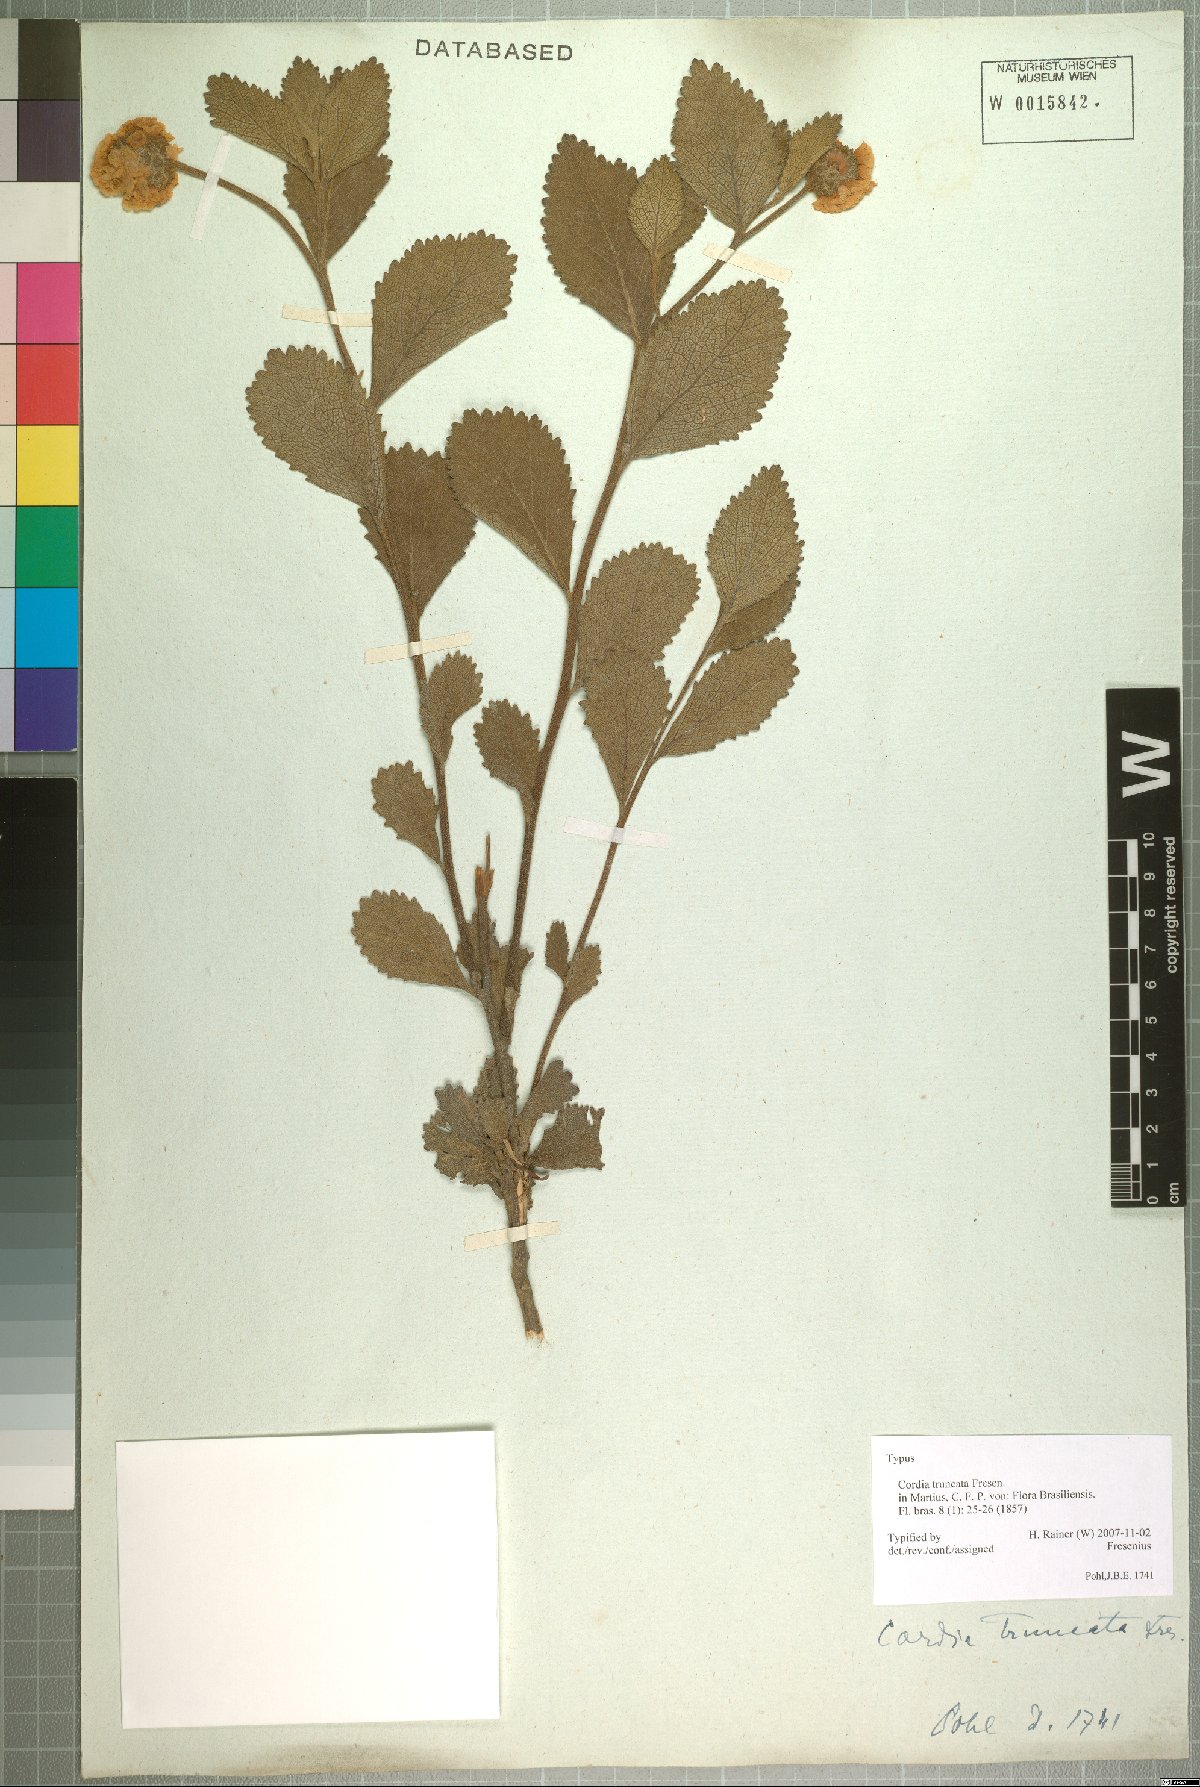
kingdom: Plantae
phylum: Tracheophyta
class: Magnoliopsida
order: Boraginales
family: Cordiaceae
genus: Varronia
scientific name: Varronia truncata
